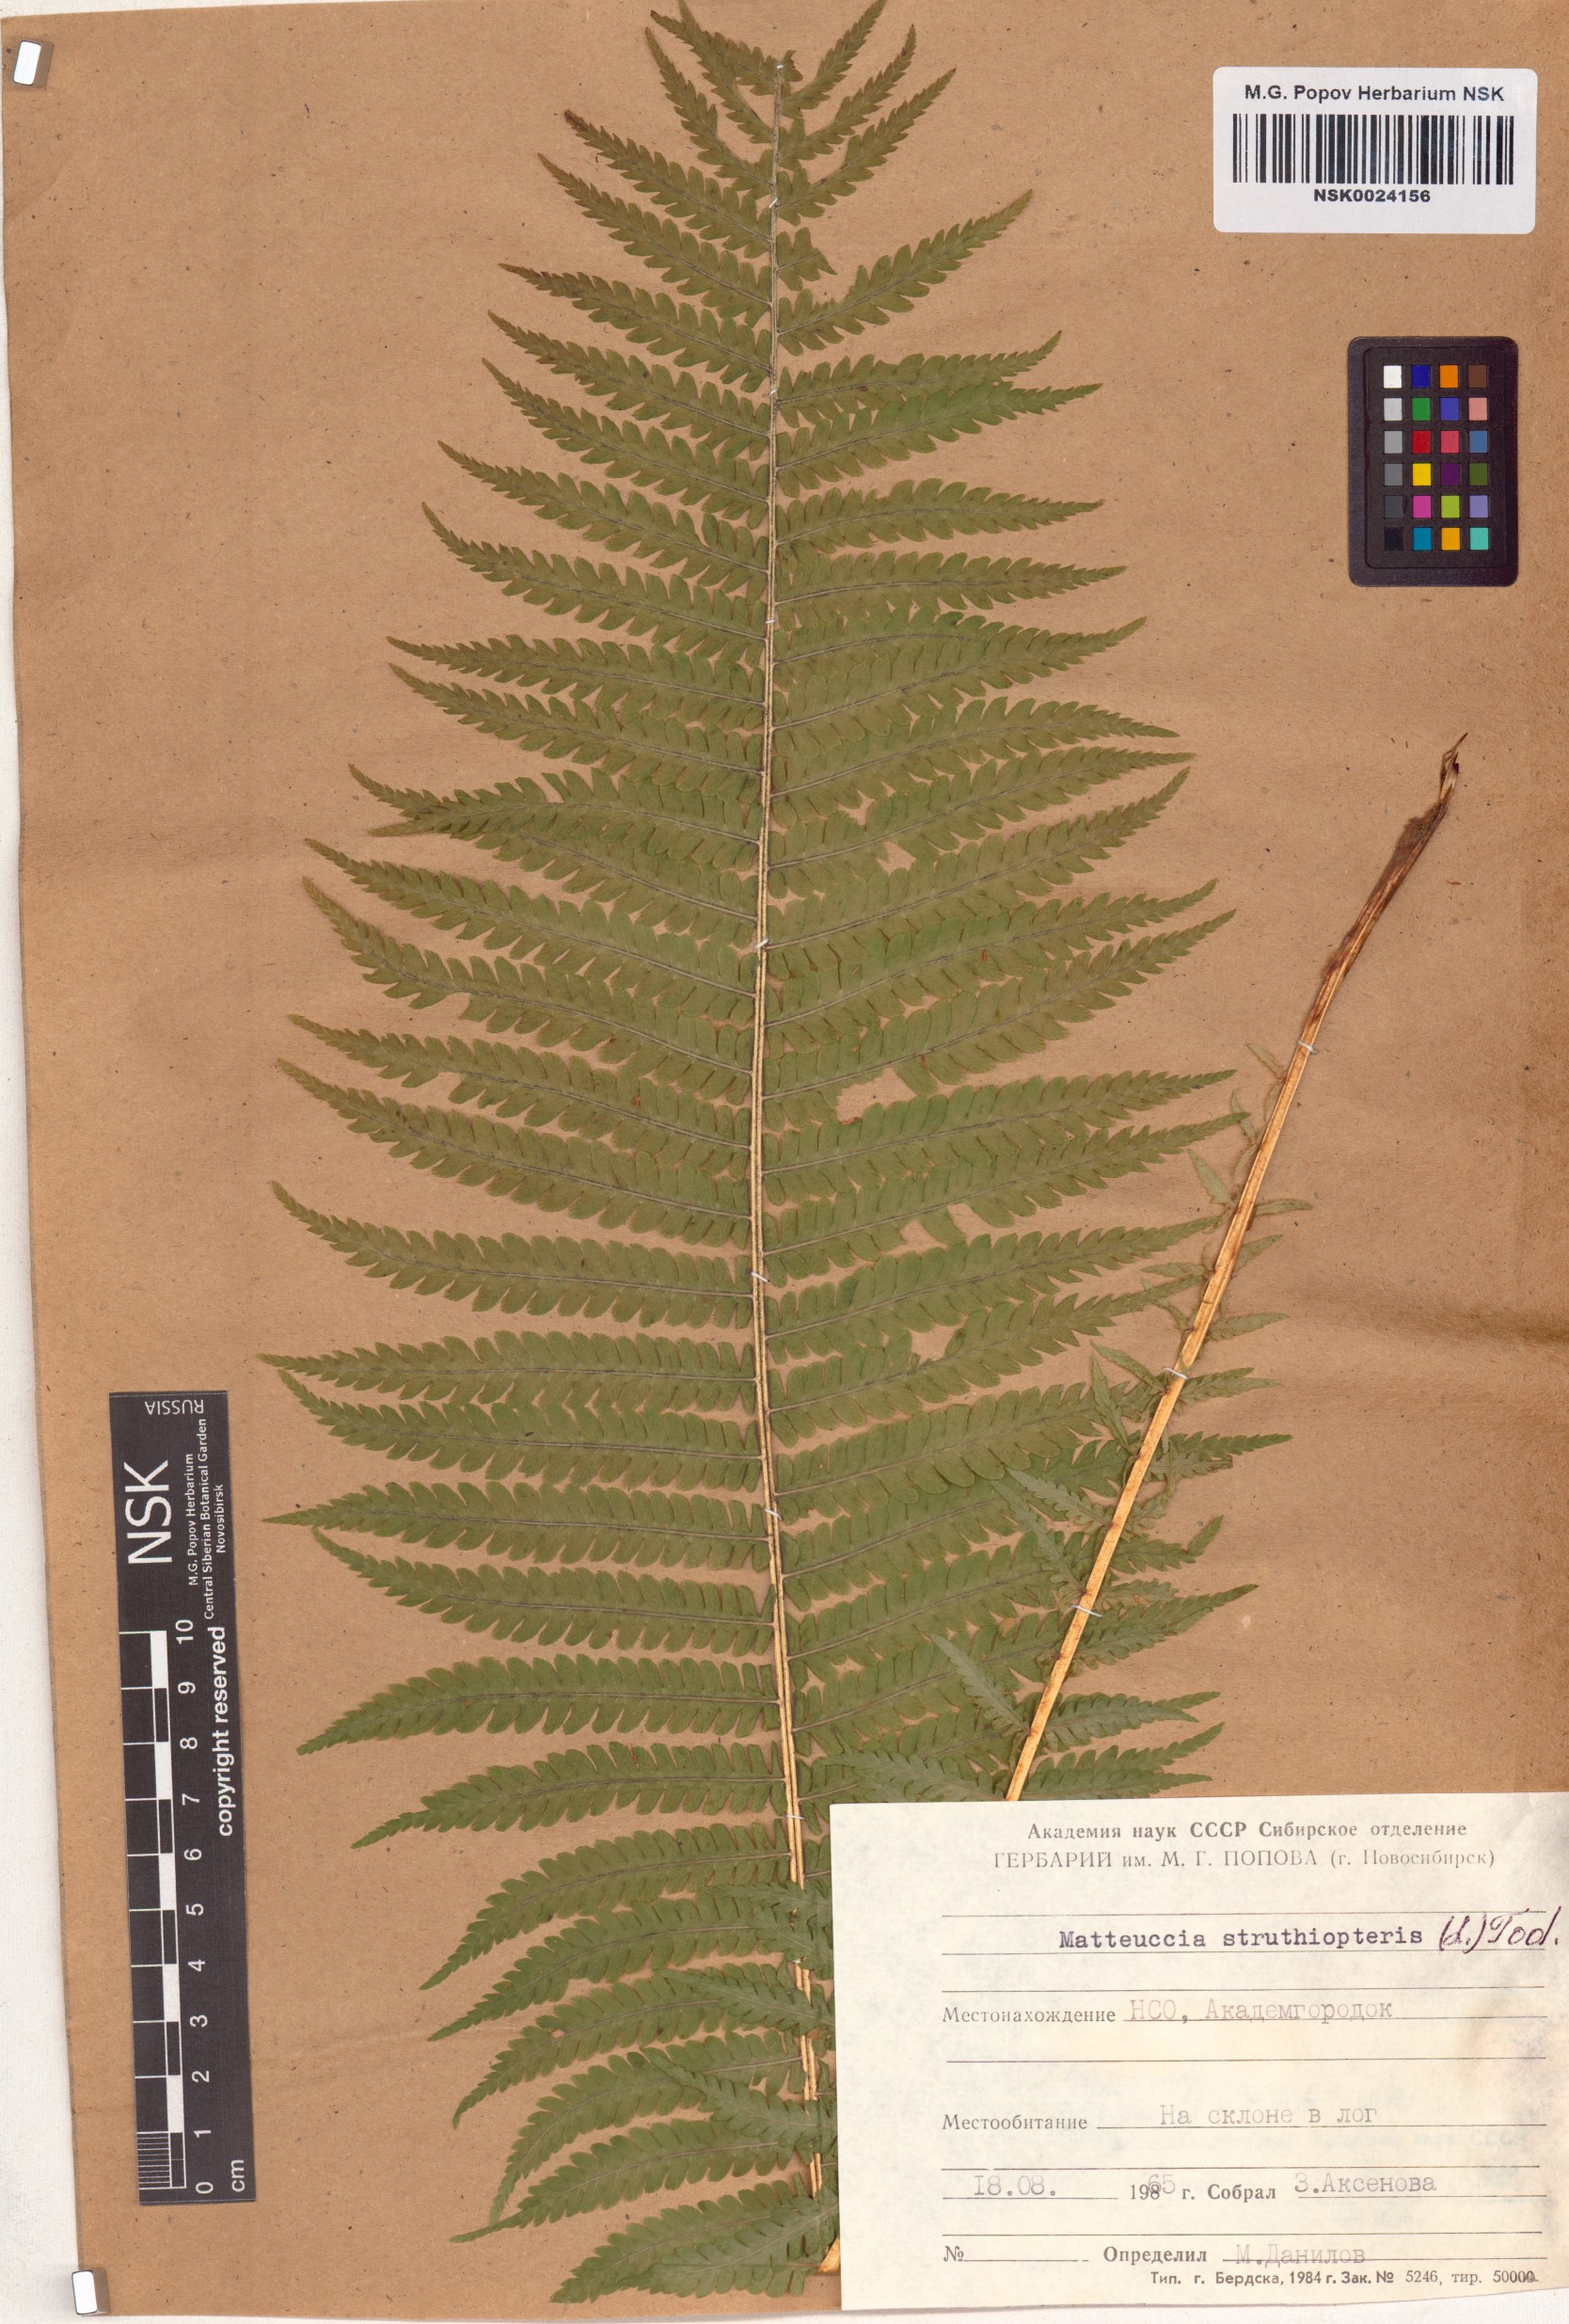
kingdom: Plantae
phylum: Tracheophyta
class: Polypodiopsida
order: Polypodiales
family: Onocleaceae
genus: Matteuccia
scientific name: Matteuccia struthiopteris
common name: Ostrich fern
